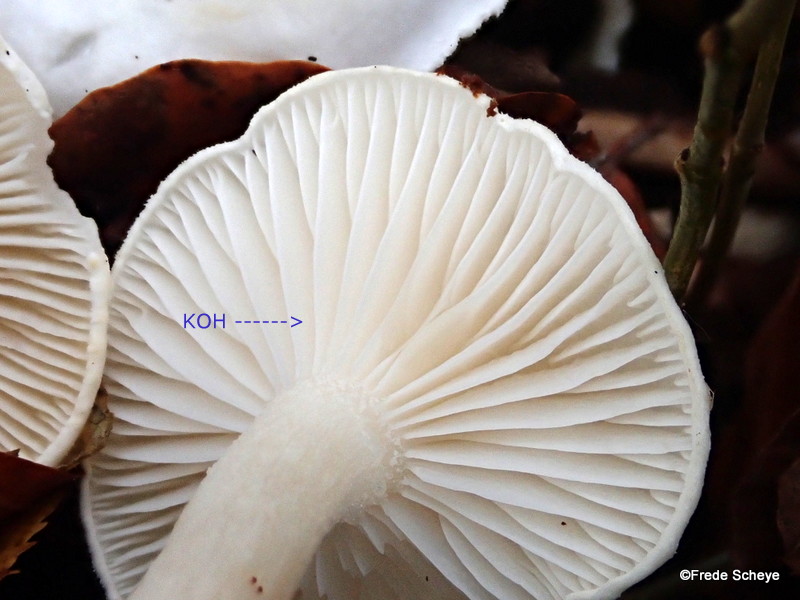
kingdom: Fungi
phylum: Basidiomycota
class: Agaricomycetes
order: Agaricales
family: Hygrophoraceae
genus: Hygrophorus
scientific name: Hygrophorus eburneus
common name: elfenbens-sneglehat
